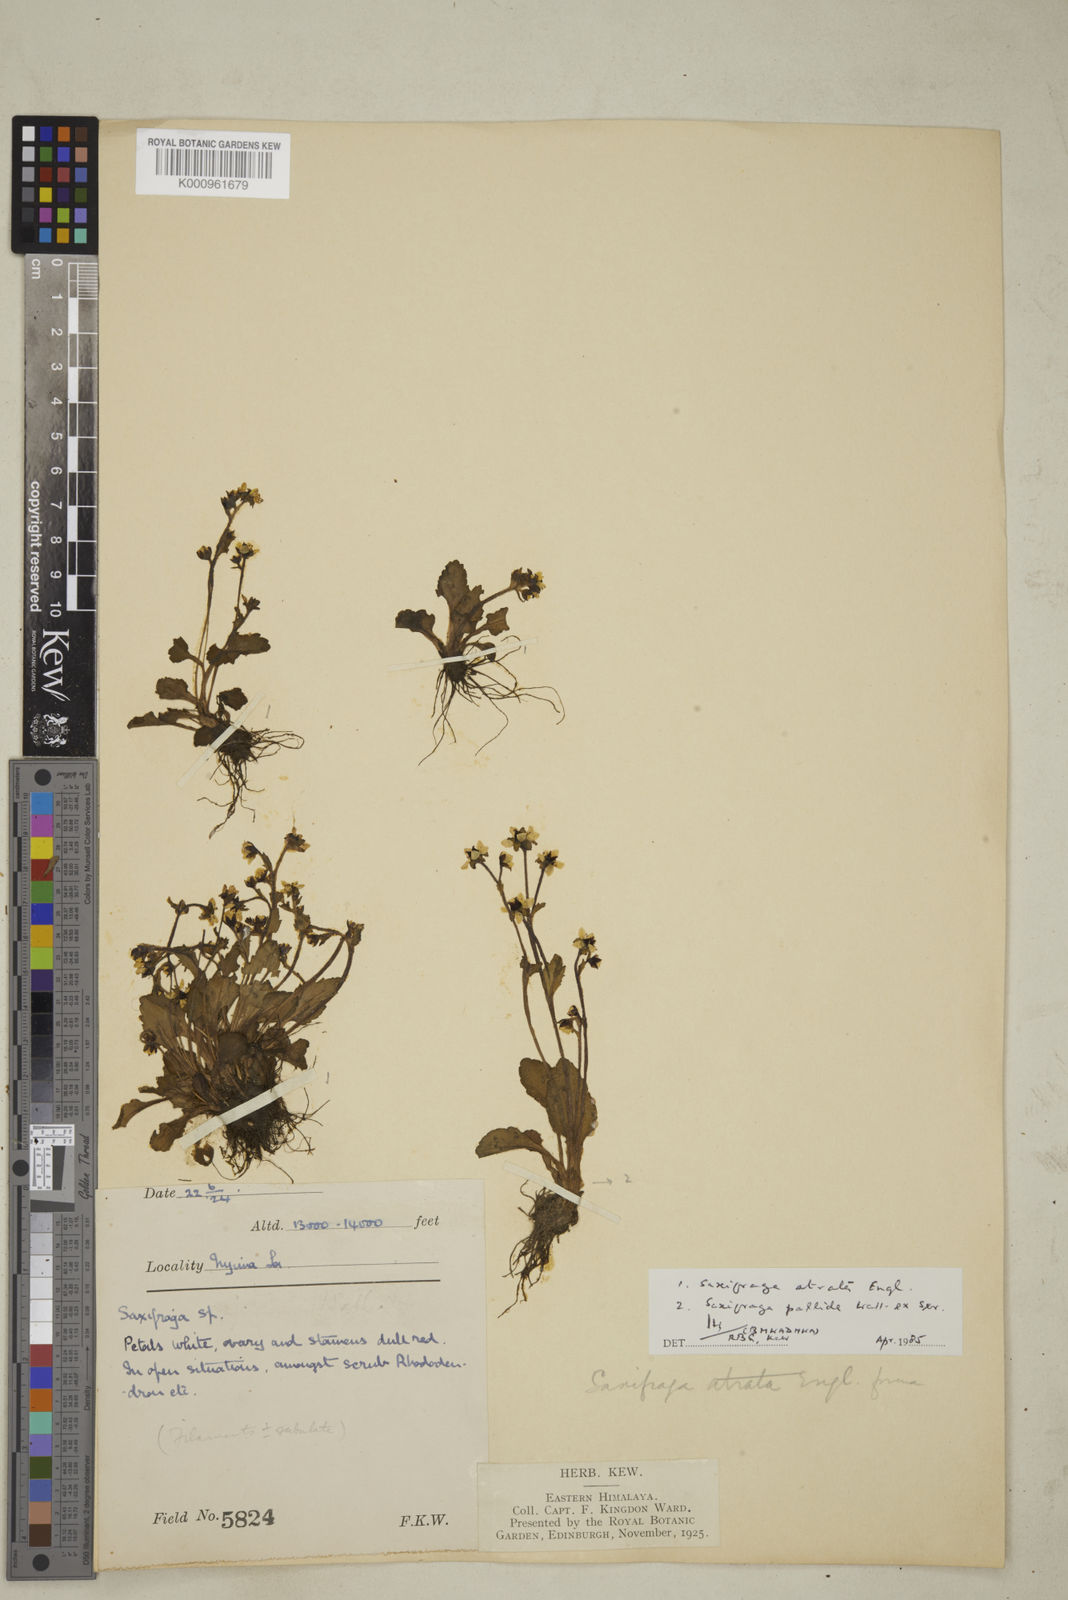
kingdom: Plantae
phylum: Tracheophyta
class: Magnoliopsida
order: Saxifragales
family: Saxifragaceae
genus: Micranthes
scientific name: Micranthes atrata
